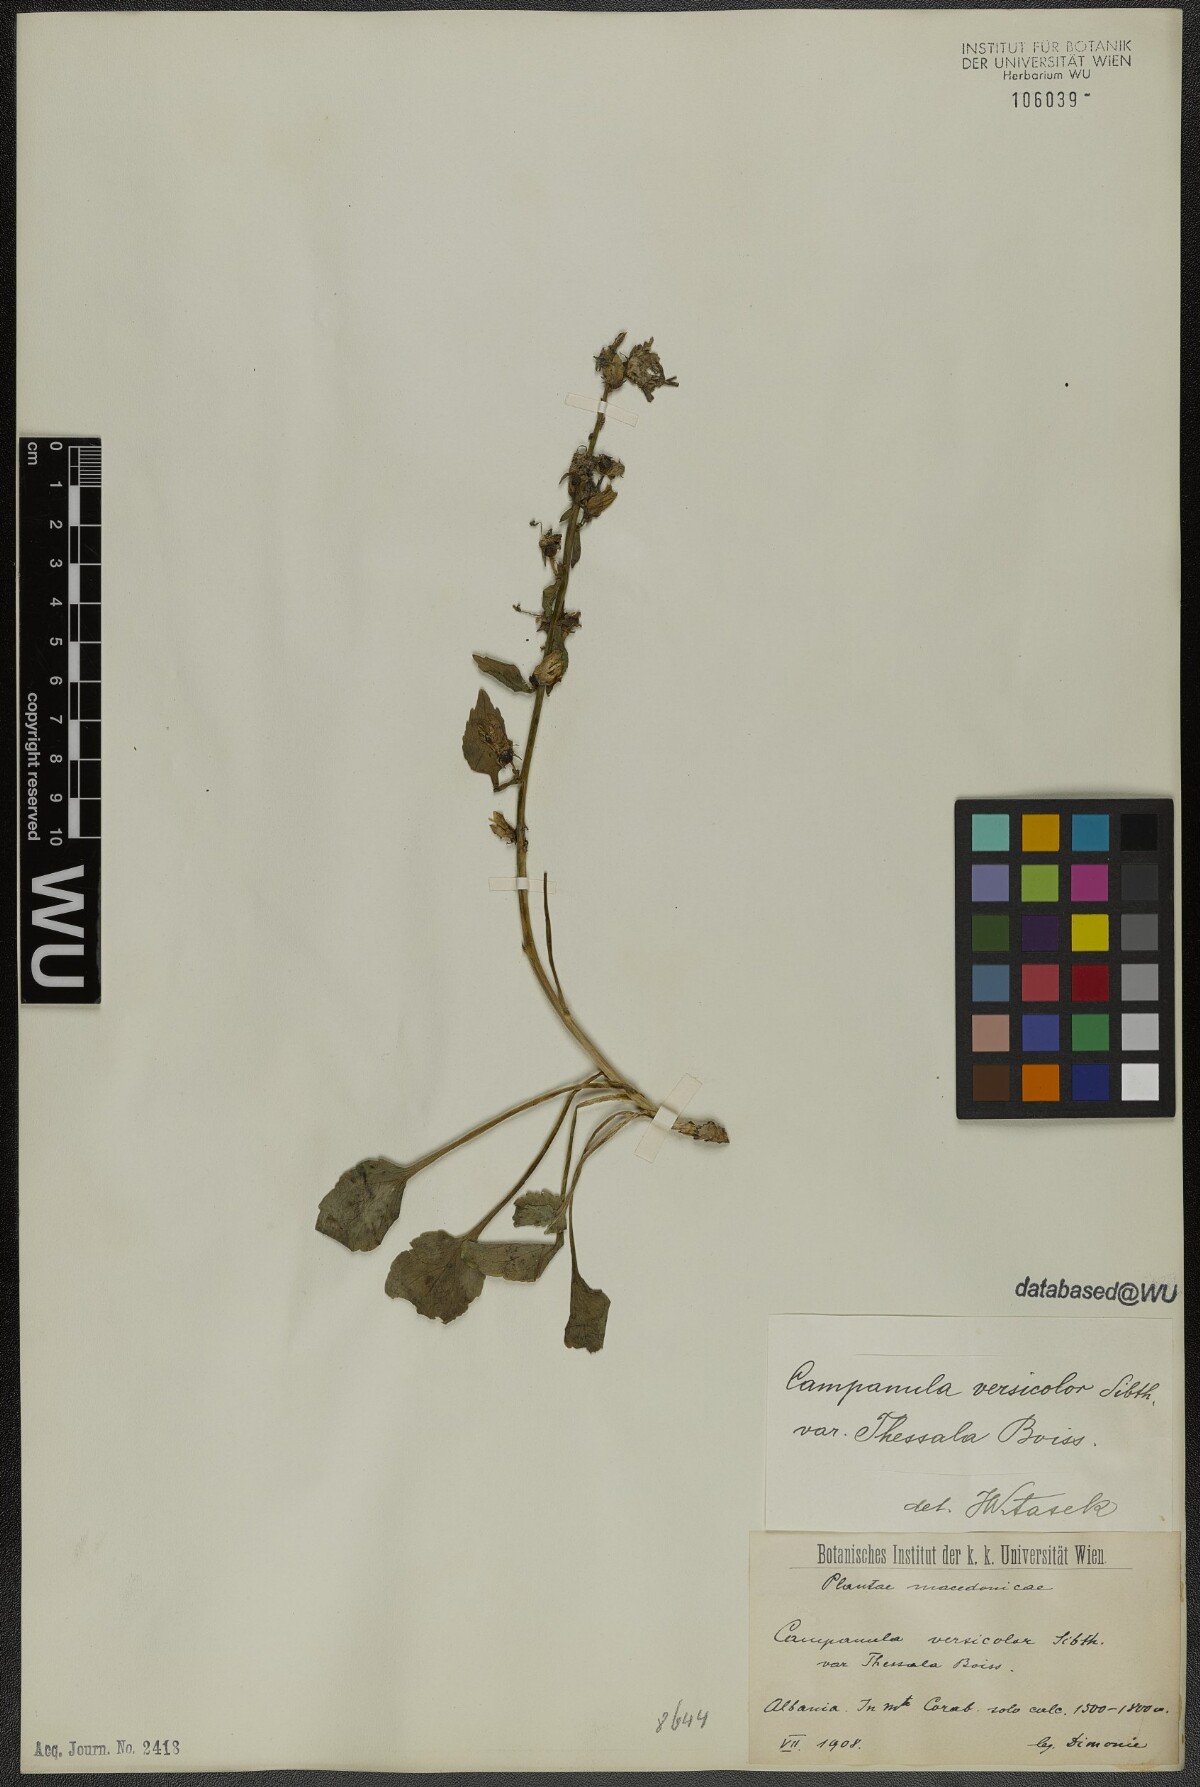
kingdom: Plantae
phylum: Tracheophyta
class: Magnoliopsida
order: Asterales
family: Campanulaceae
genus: Campanula
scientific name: Campanula versicolor
